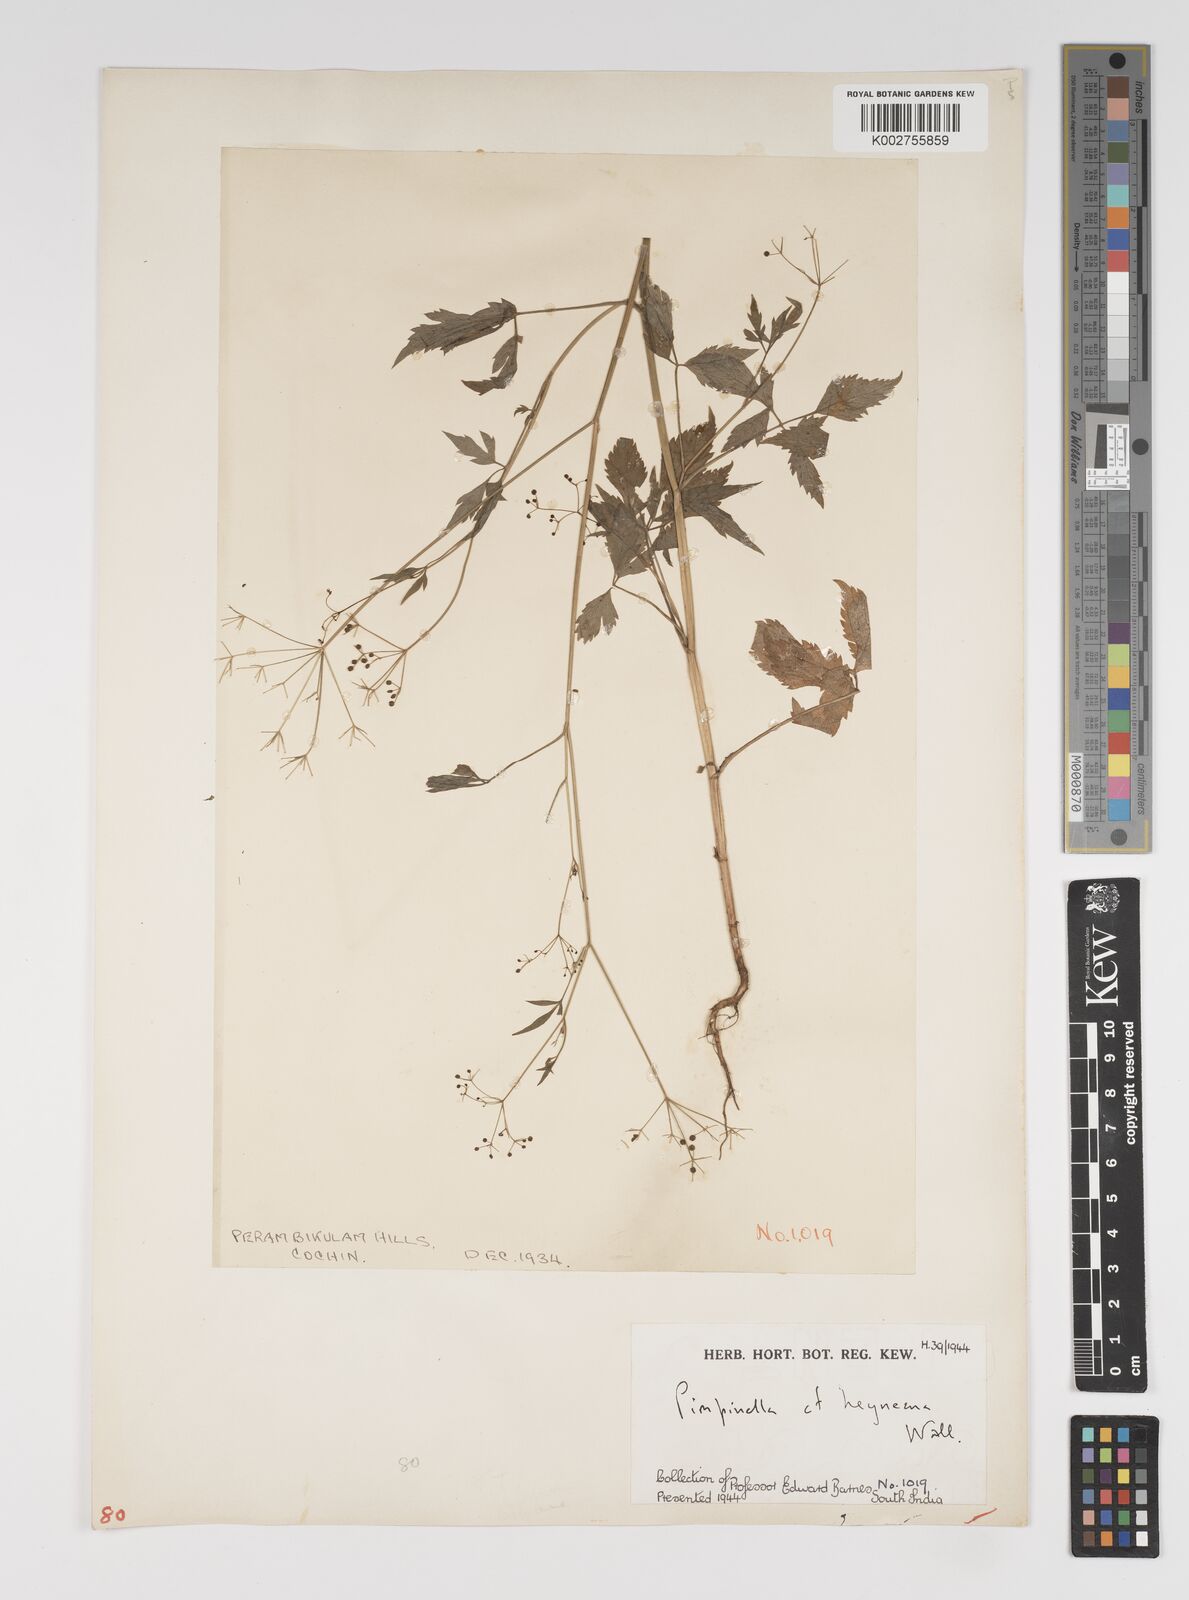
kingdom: Plantae
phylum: Tracheophyta
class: Magnoliopsida
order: Apiales
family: Apiaceae
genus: Pimpinella
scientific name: Pimpinella heyneana
